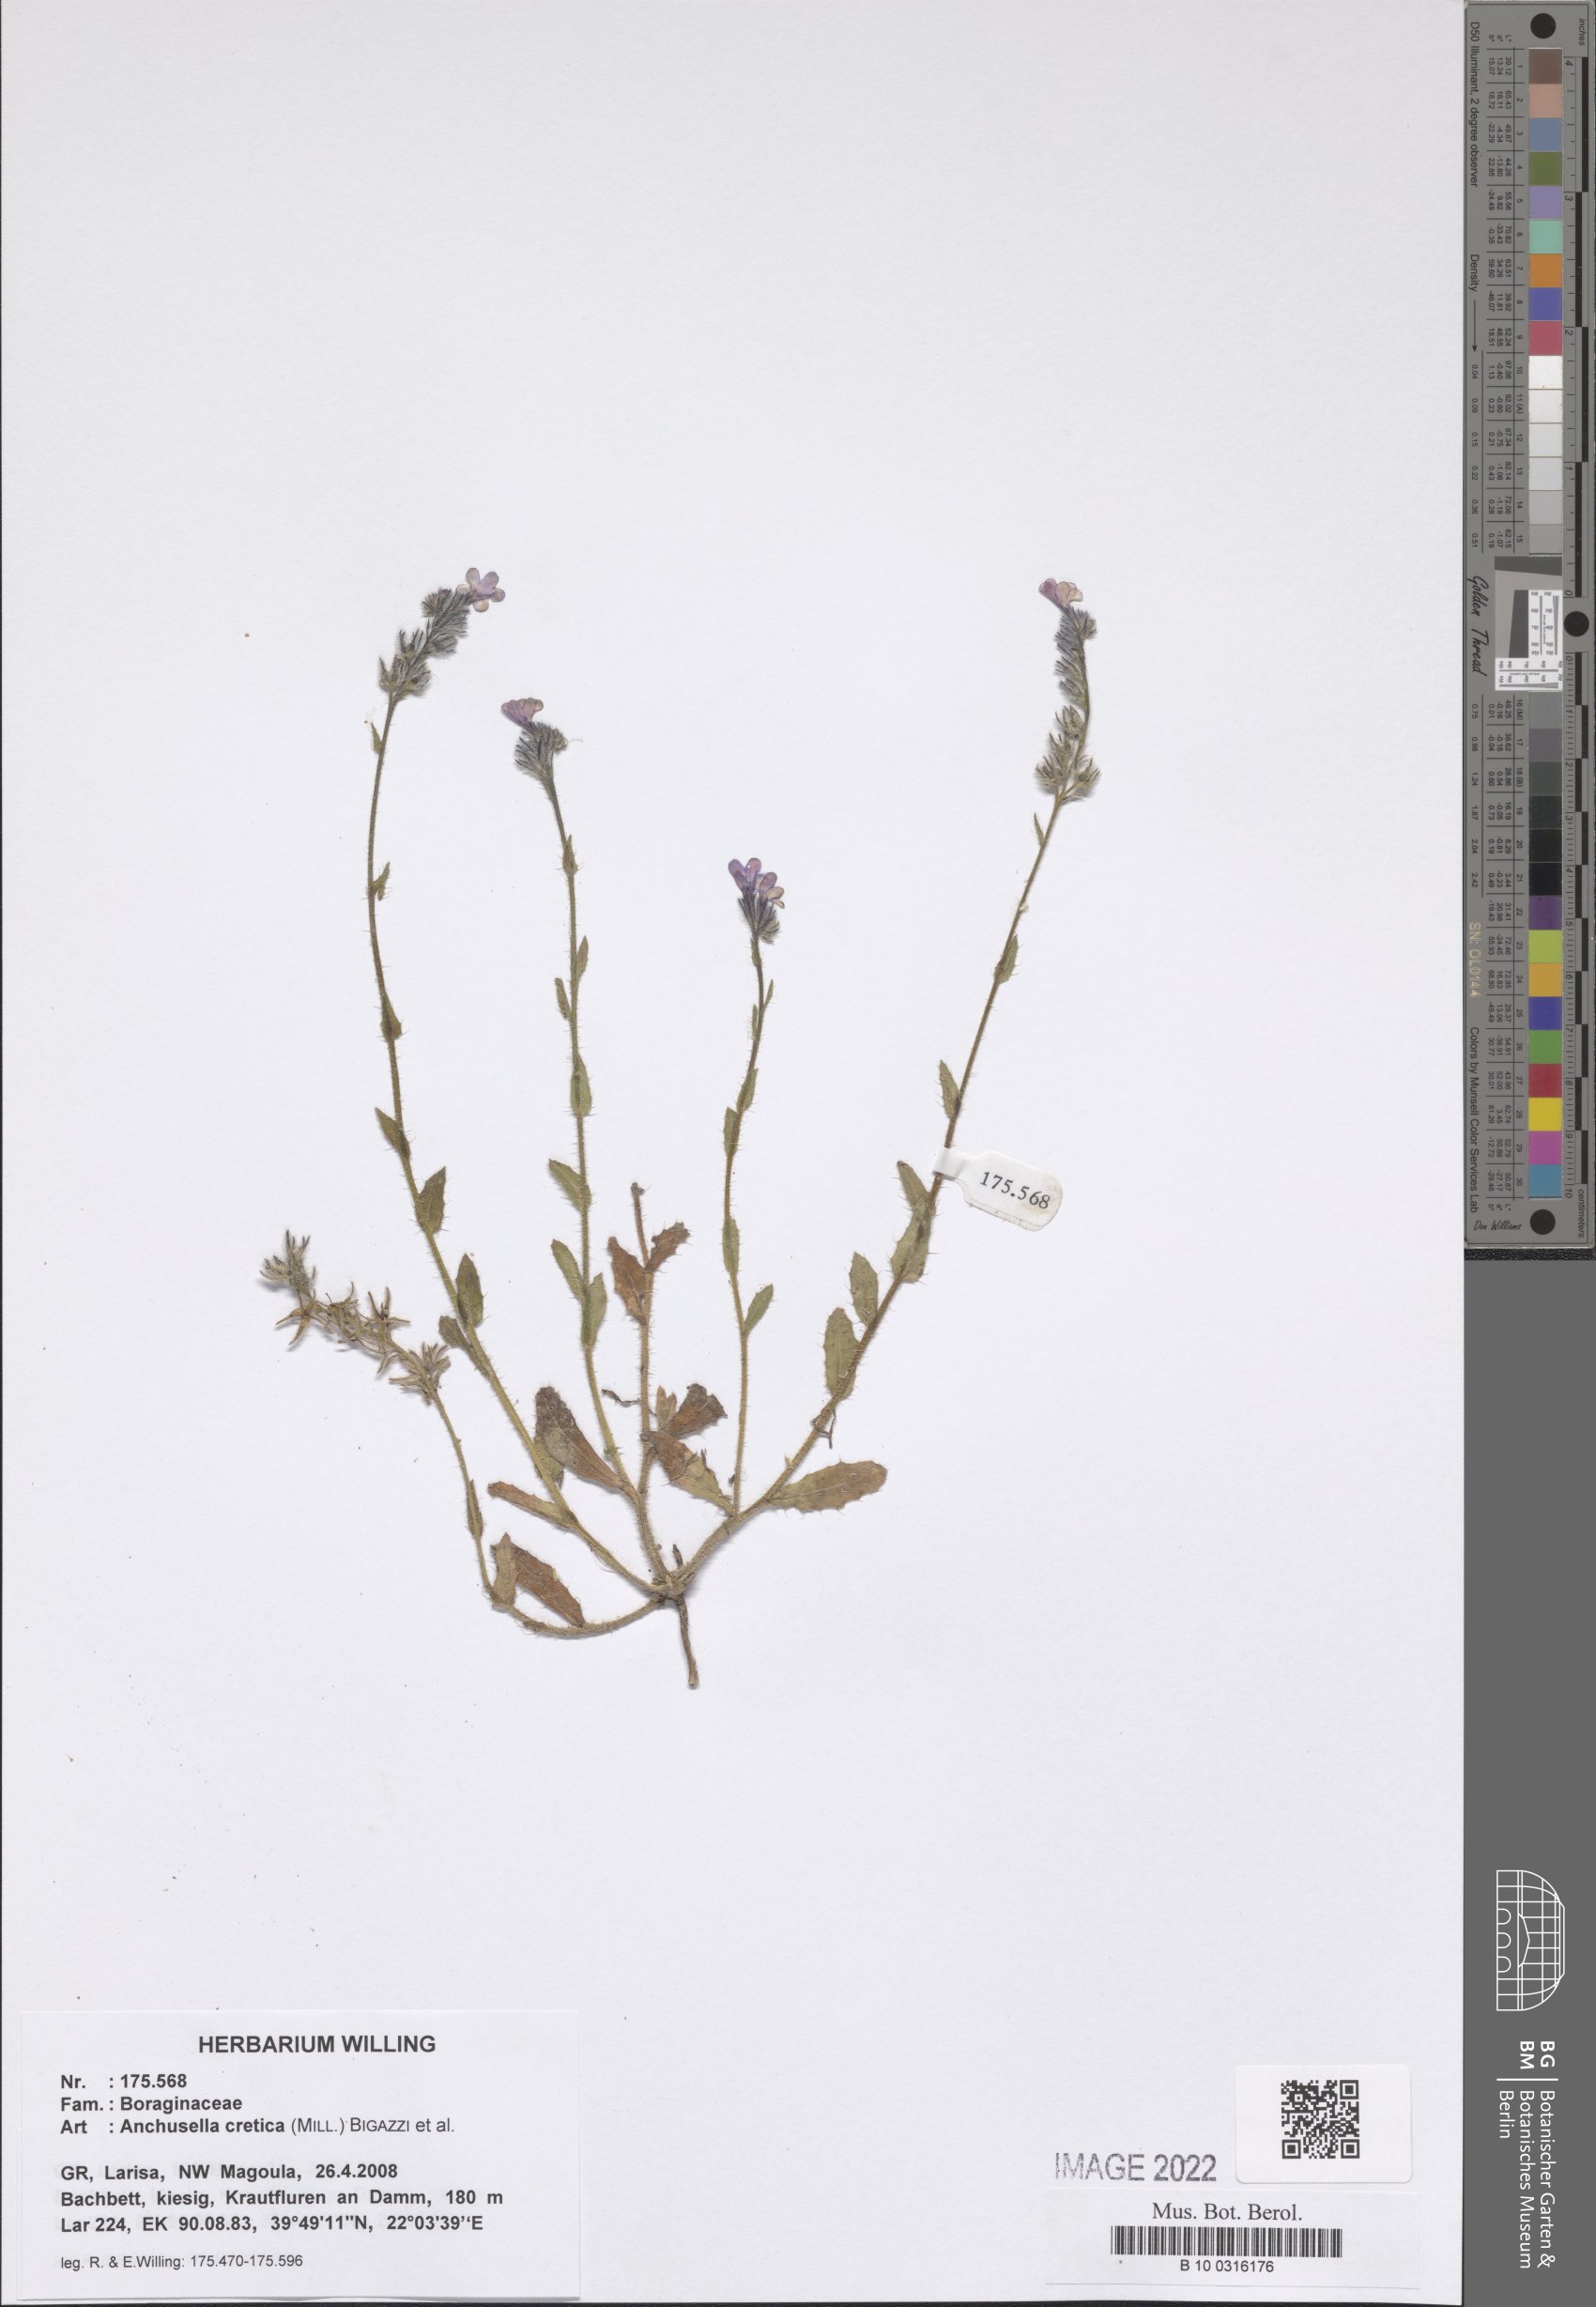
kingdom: Plantae
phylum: Tracheophyta
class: Magnoliopsida
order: Boraginales
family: Boraginaceae
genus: Anchusella
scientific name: Anchusella cretica
